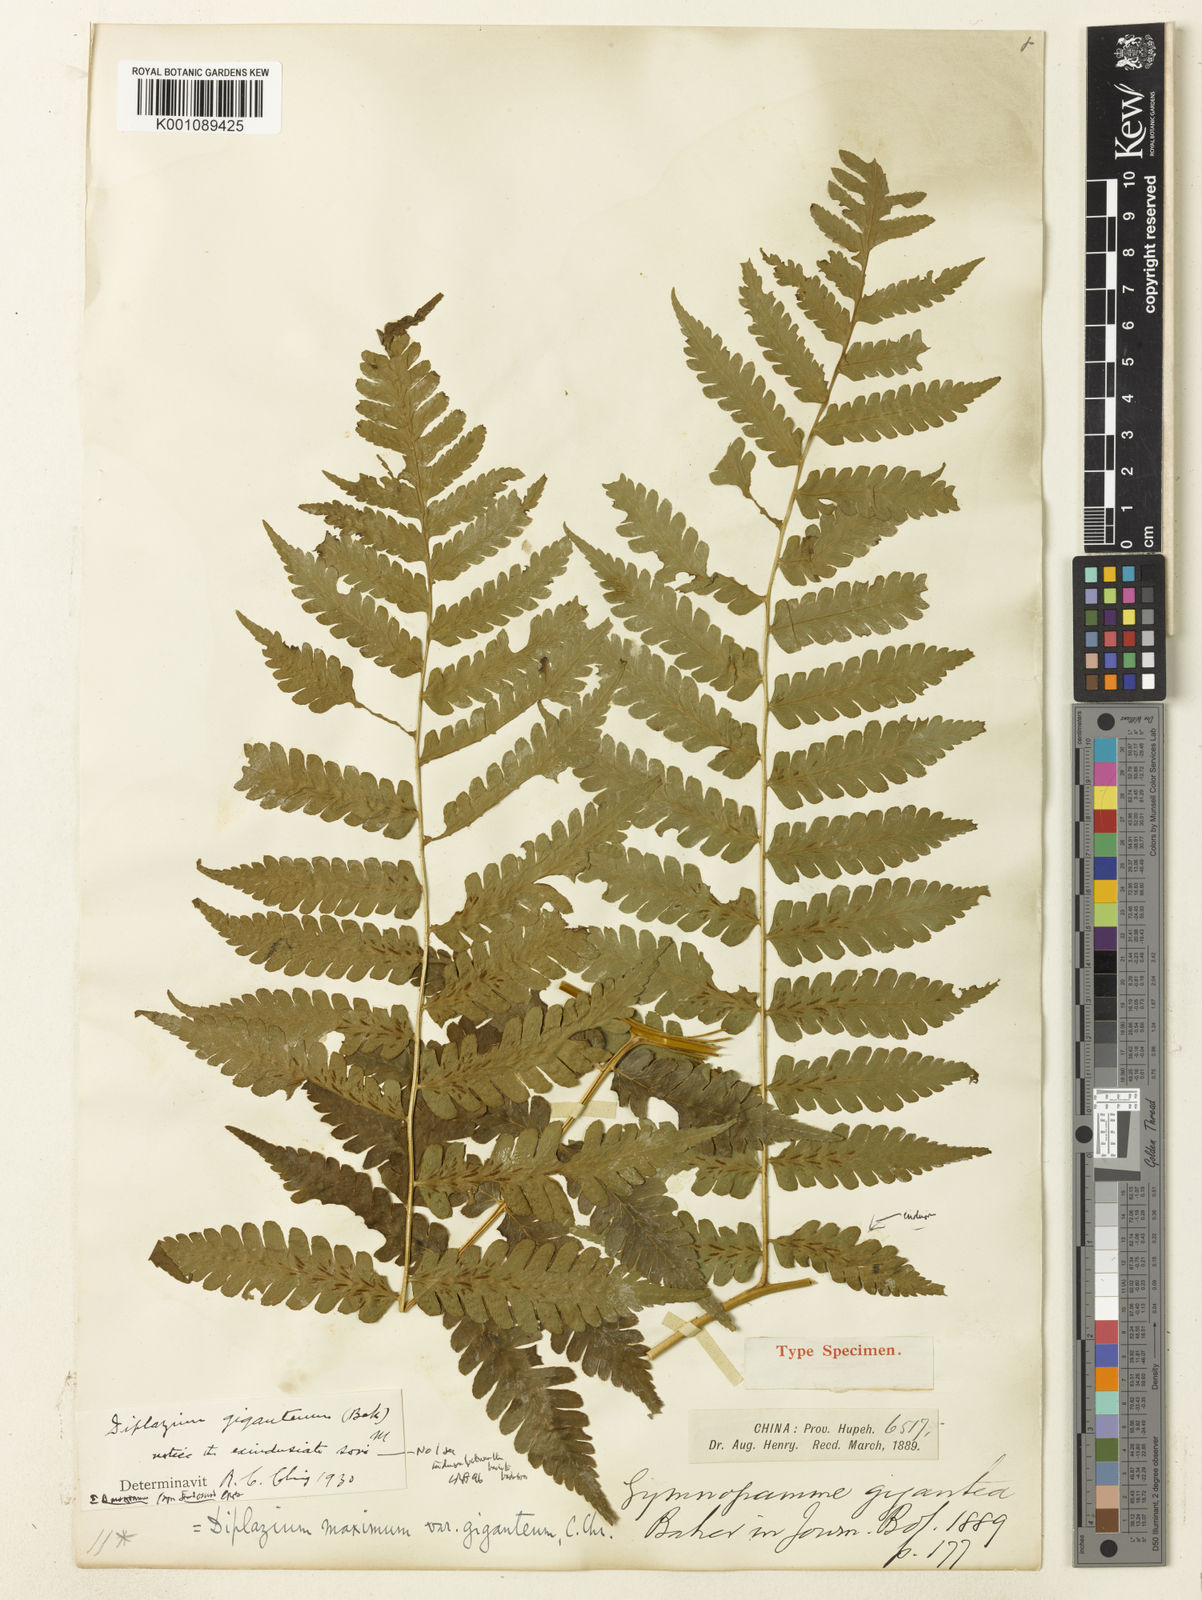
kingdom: Plantae
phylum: Tracheophyta
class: Polypodiopsida
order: Polypodiales
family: Athyriaceae
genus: Diplazium
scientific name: Diplazium maximum
